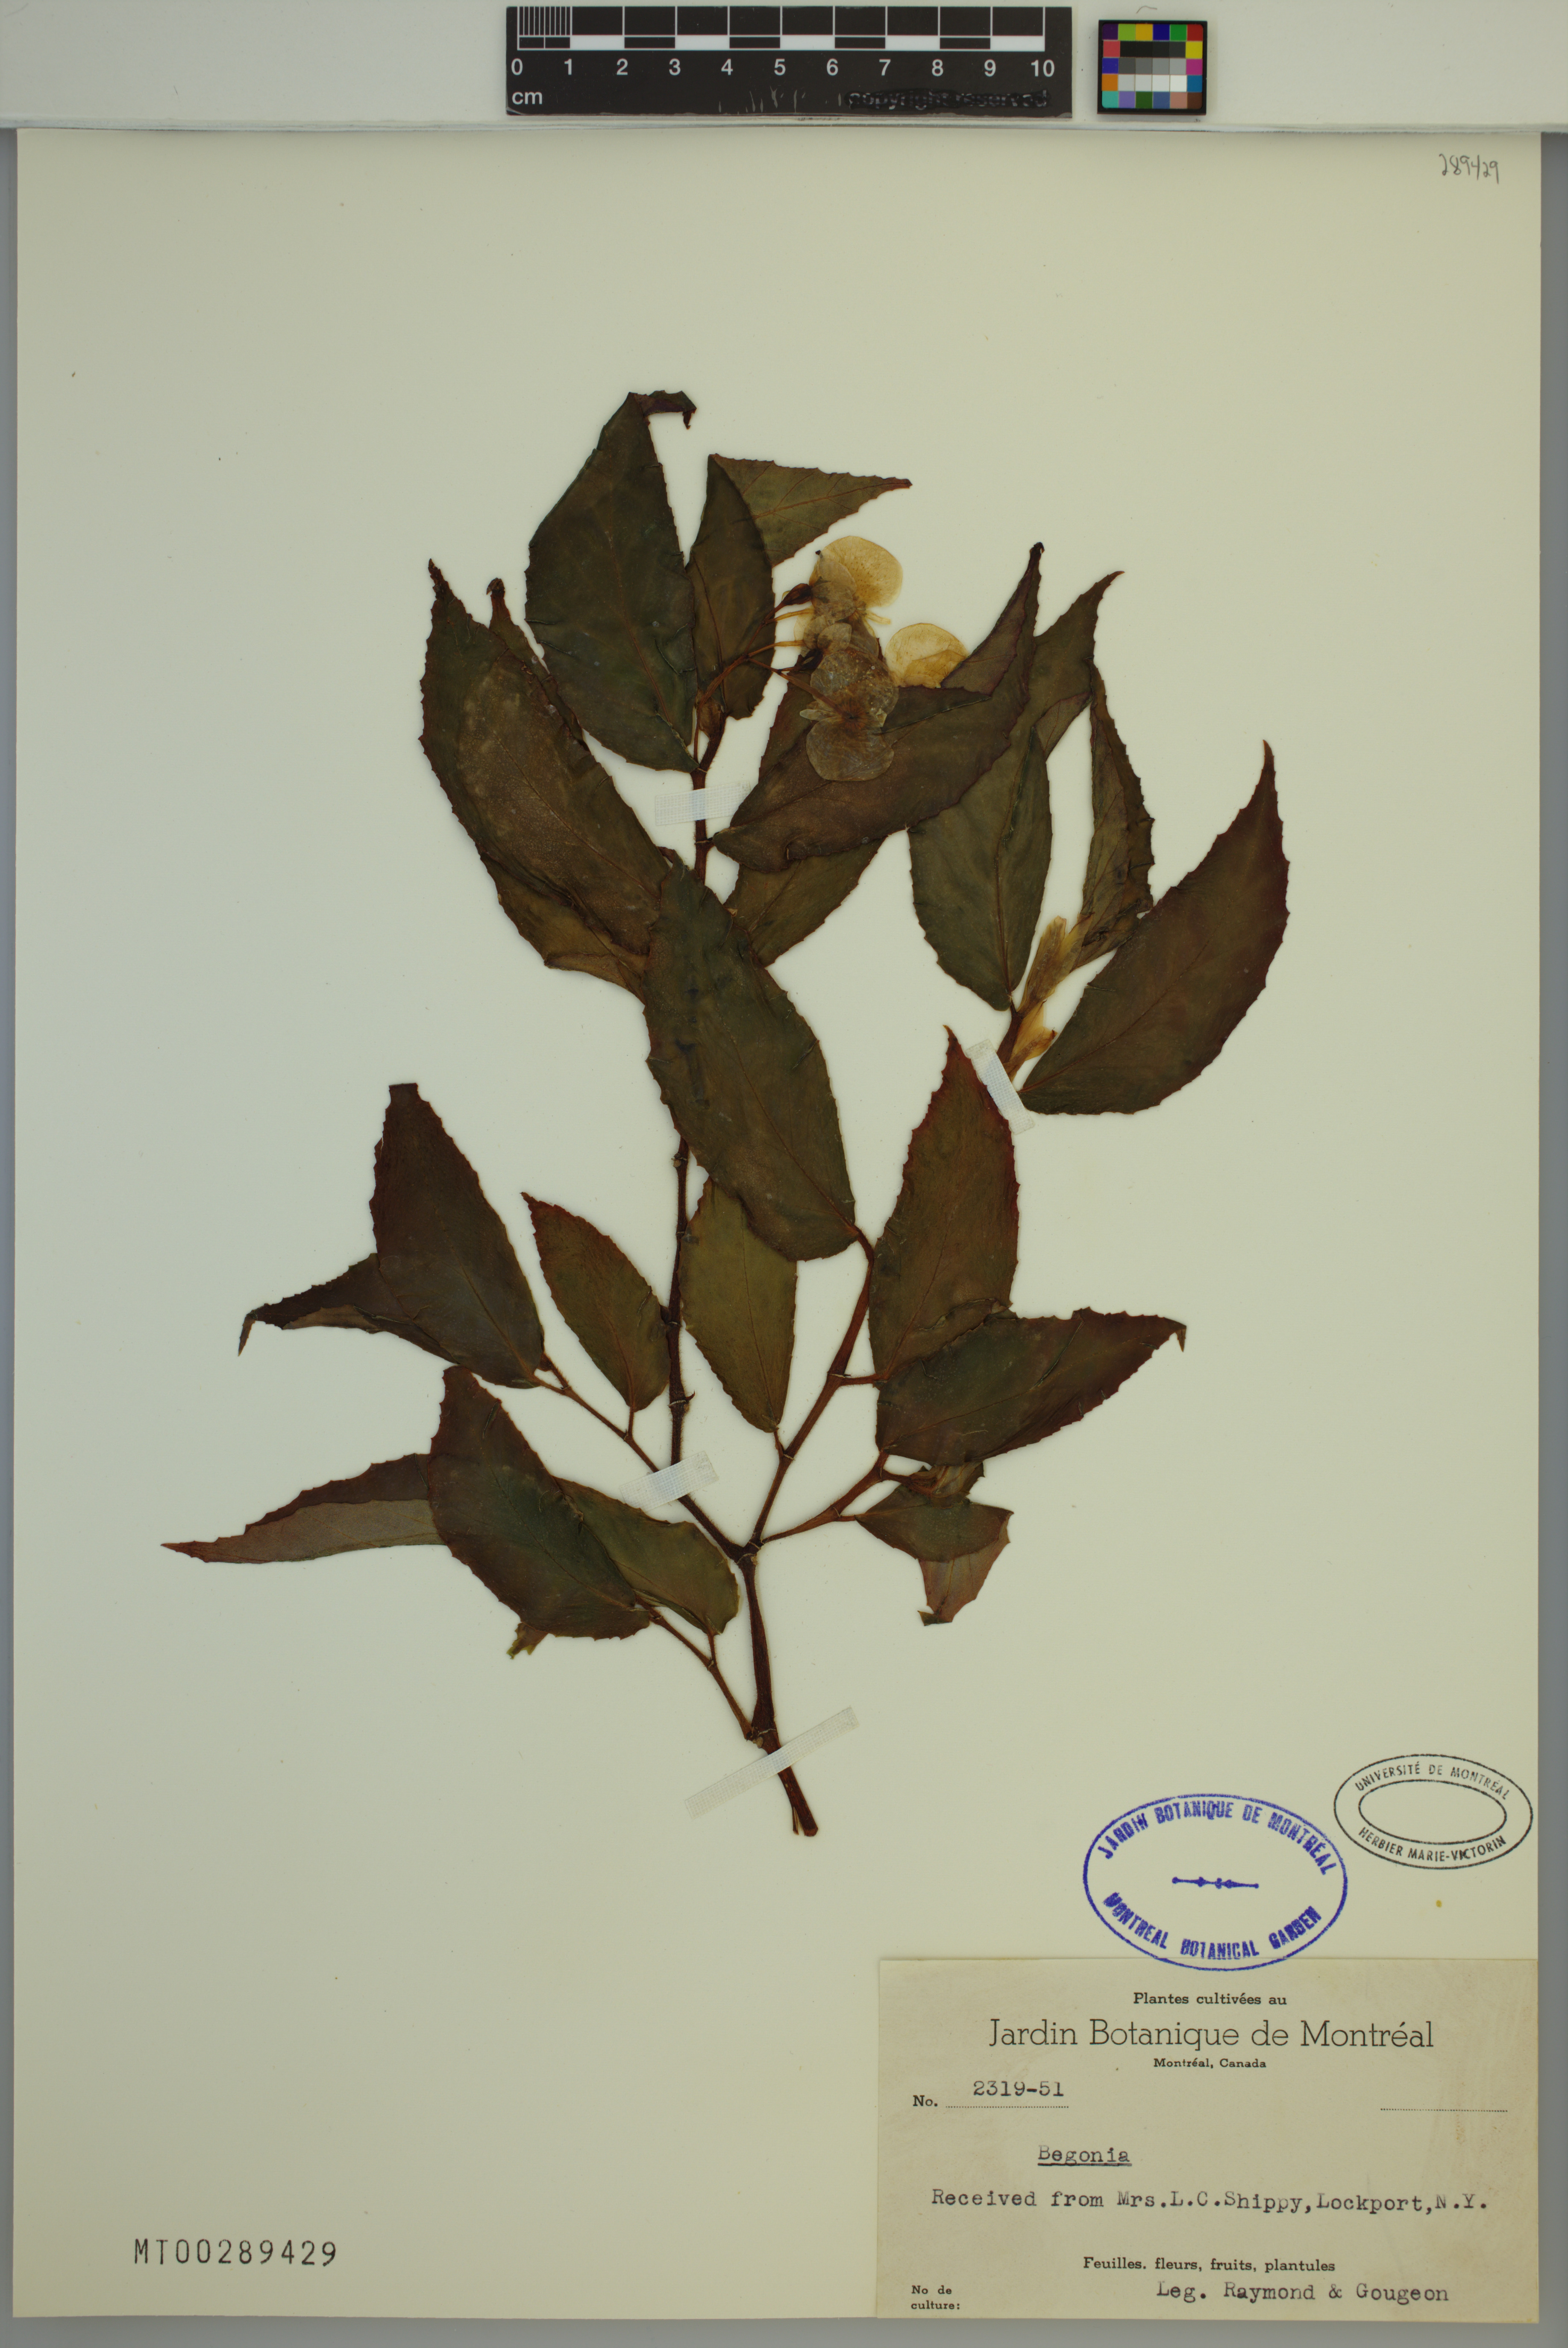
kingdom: Plantae
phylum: Tracheophyta
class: Magnoliopsida
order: Cucurbitales
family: Begoniaceae
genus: Begonia
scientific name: Begonia
